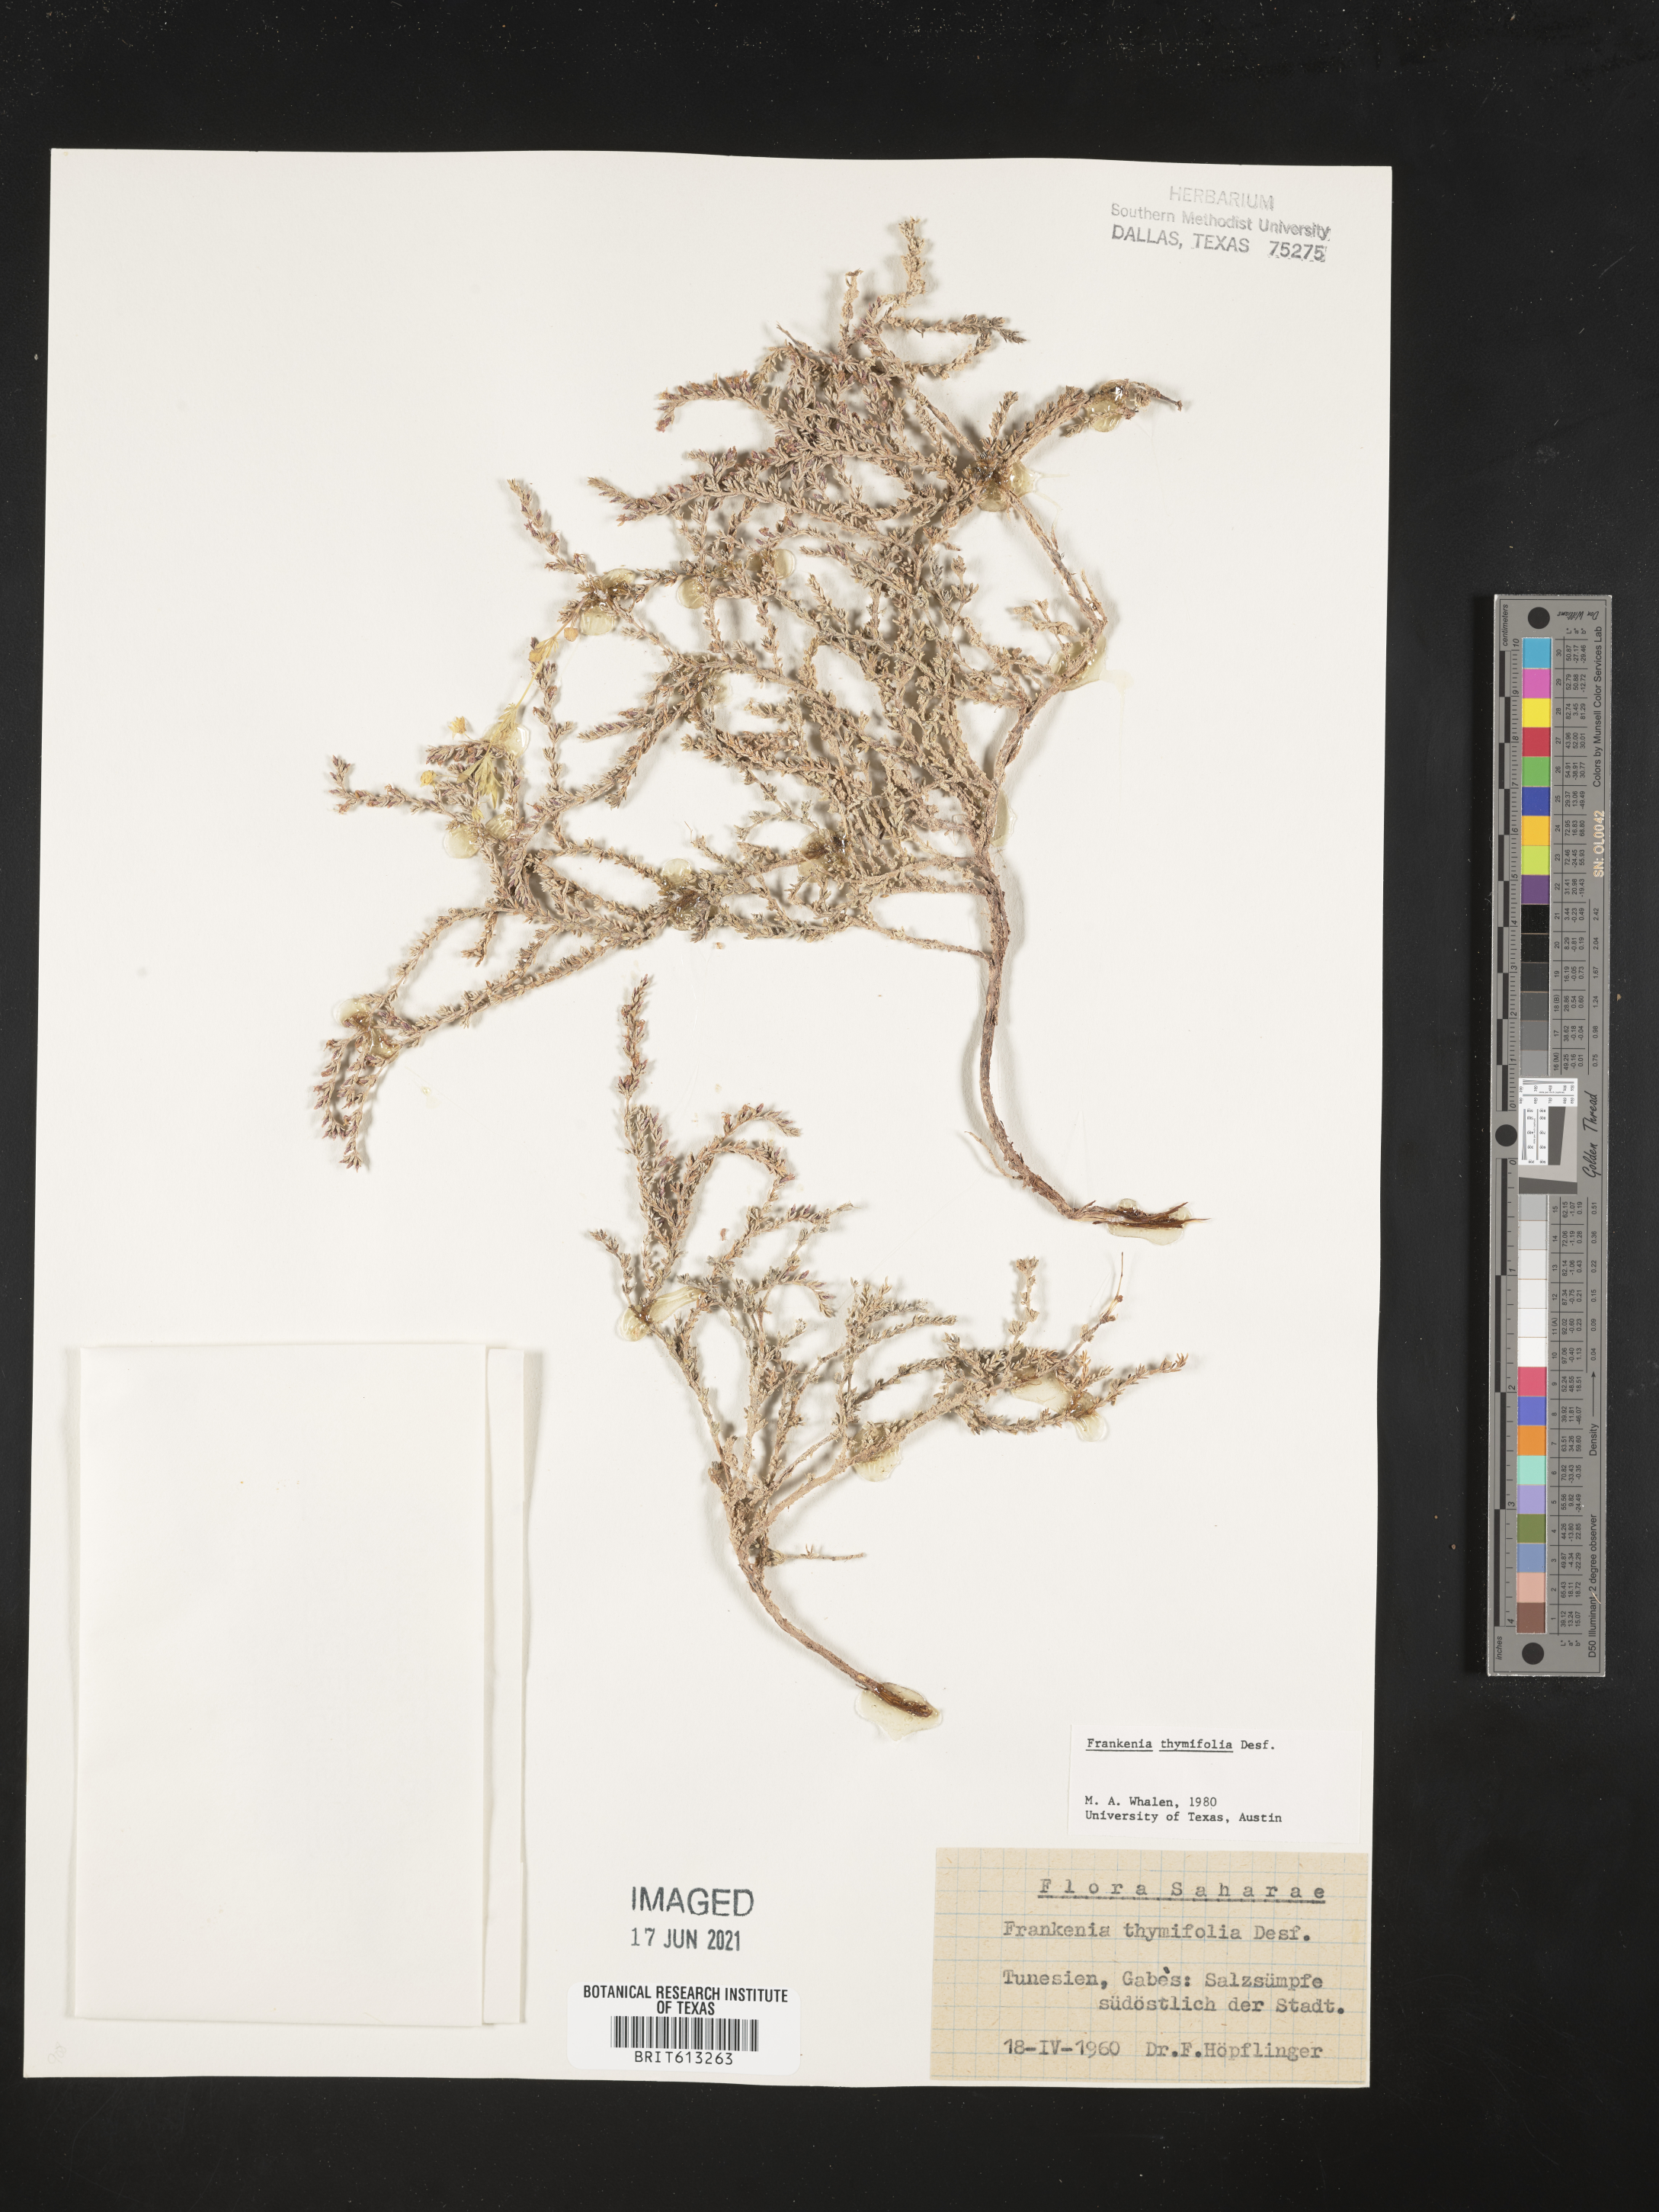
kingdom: Plantae
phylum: Tracheophyta
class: Magnoliopsida
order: Caryophyllales
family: Frankeniaceae
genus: Frankenia
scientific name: Frankenia thymifolia
